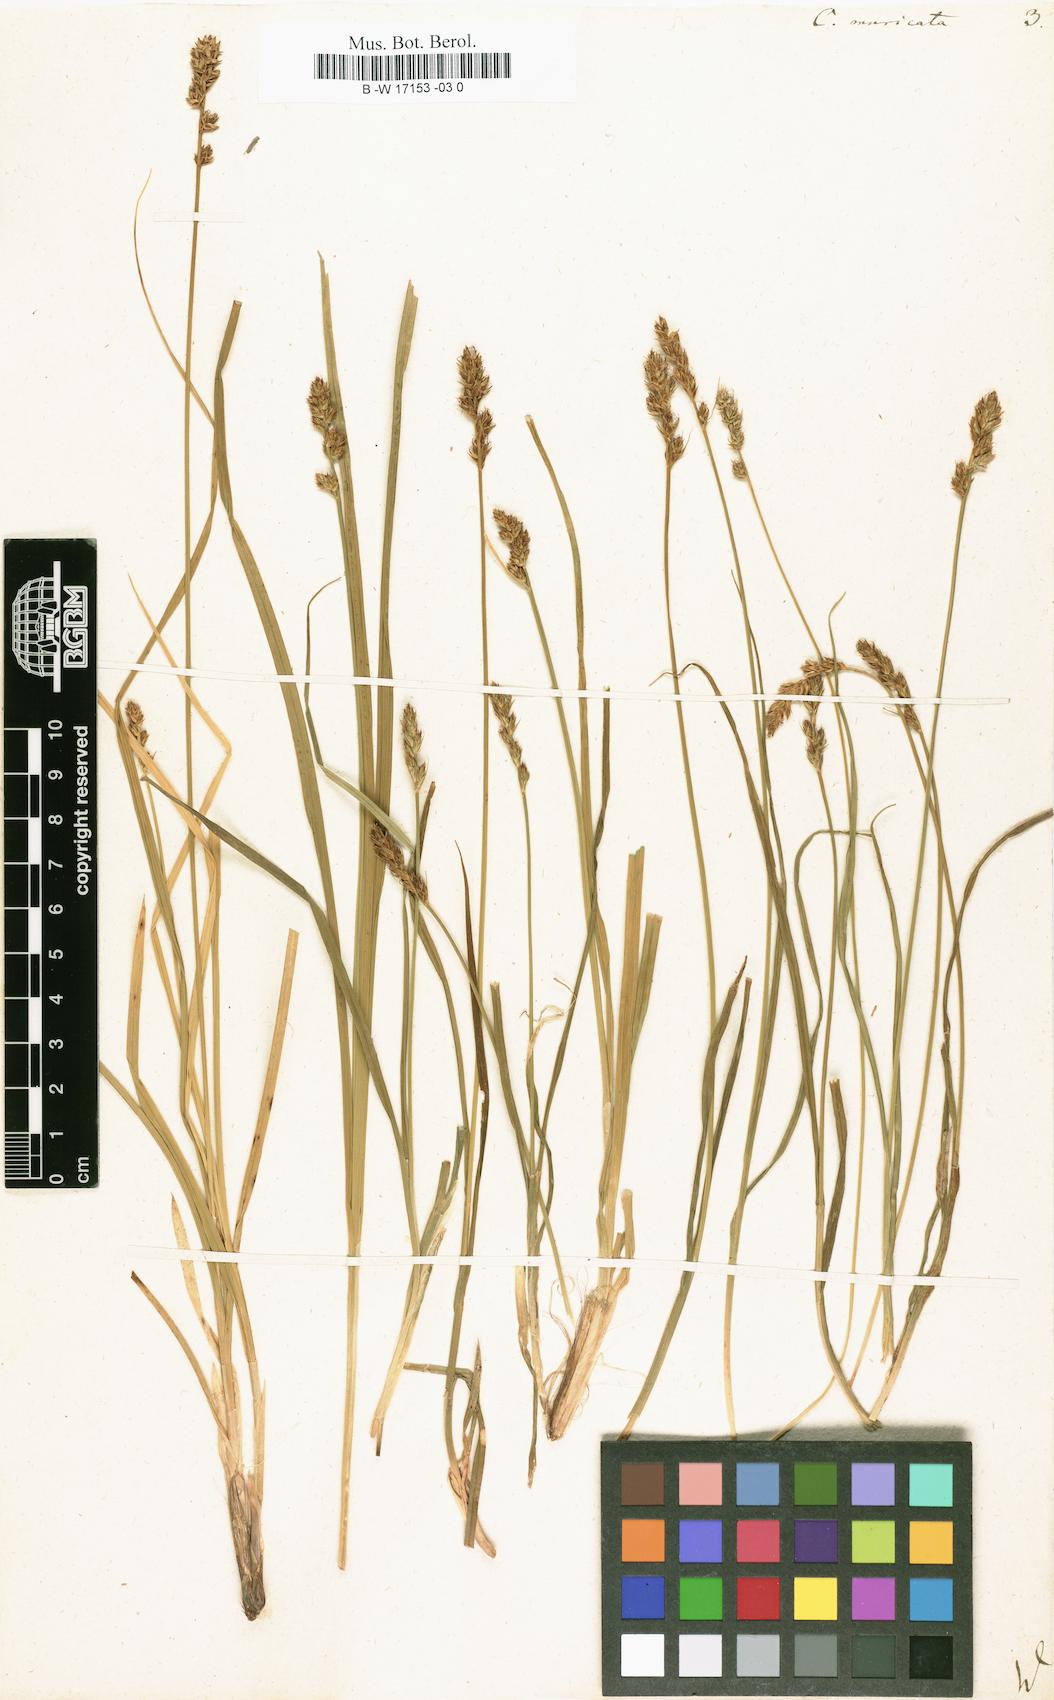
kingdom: Plantae
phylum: Tracheophyta
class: Liliopsida
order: Poales
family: Cyperaceae
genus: Carex
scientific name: Carex muricata
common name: Rough sedge
